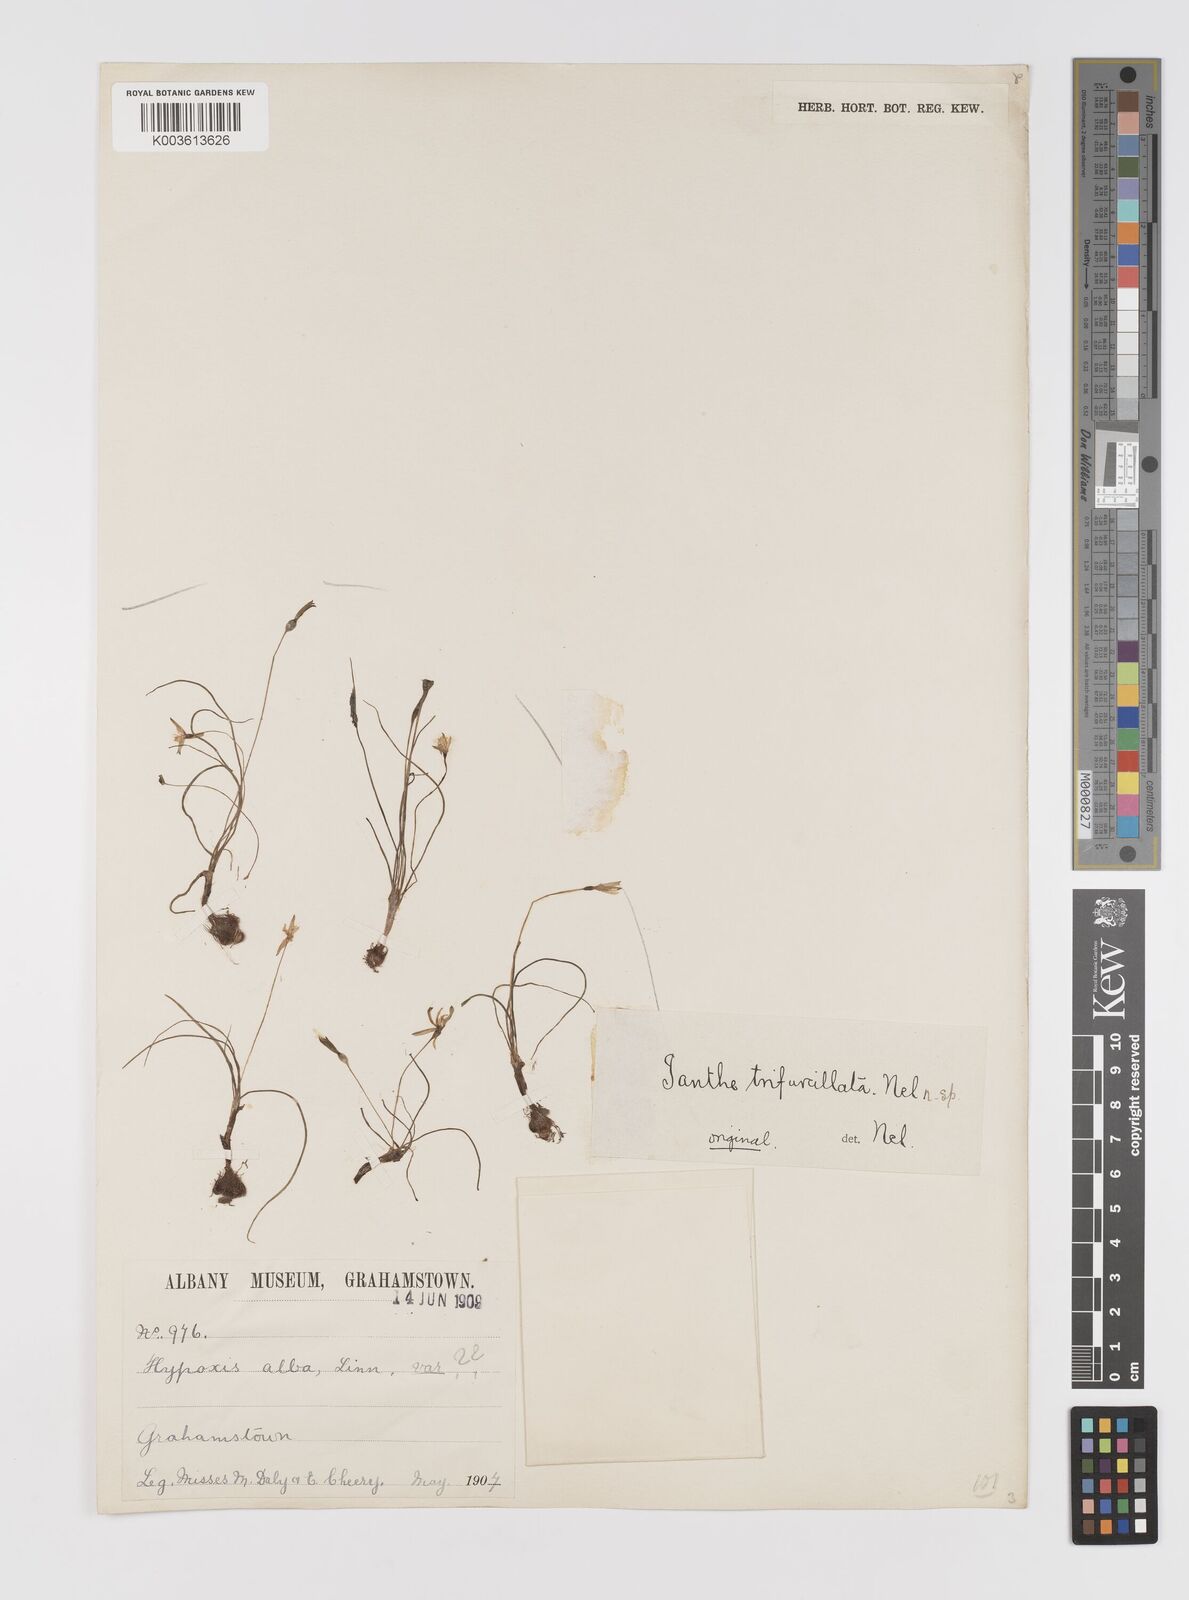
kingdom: Plantae
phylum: Tracheophyta
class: Liliopsida
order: Asparagales
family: Hypoxidaceae
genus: Pauridia
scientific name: Pauridia trifurcillata
